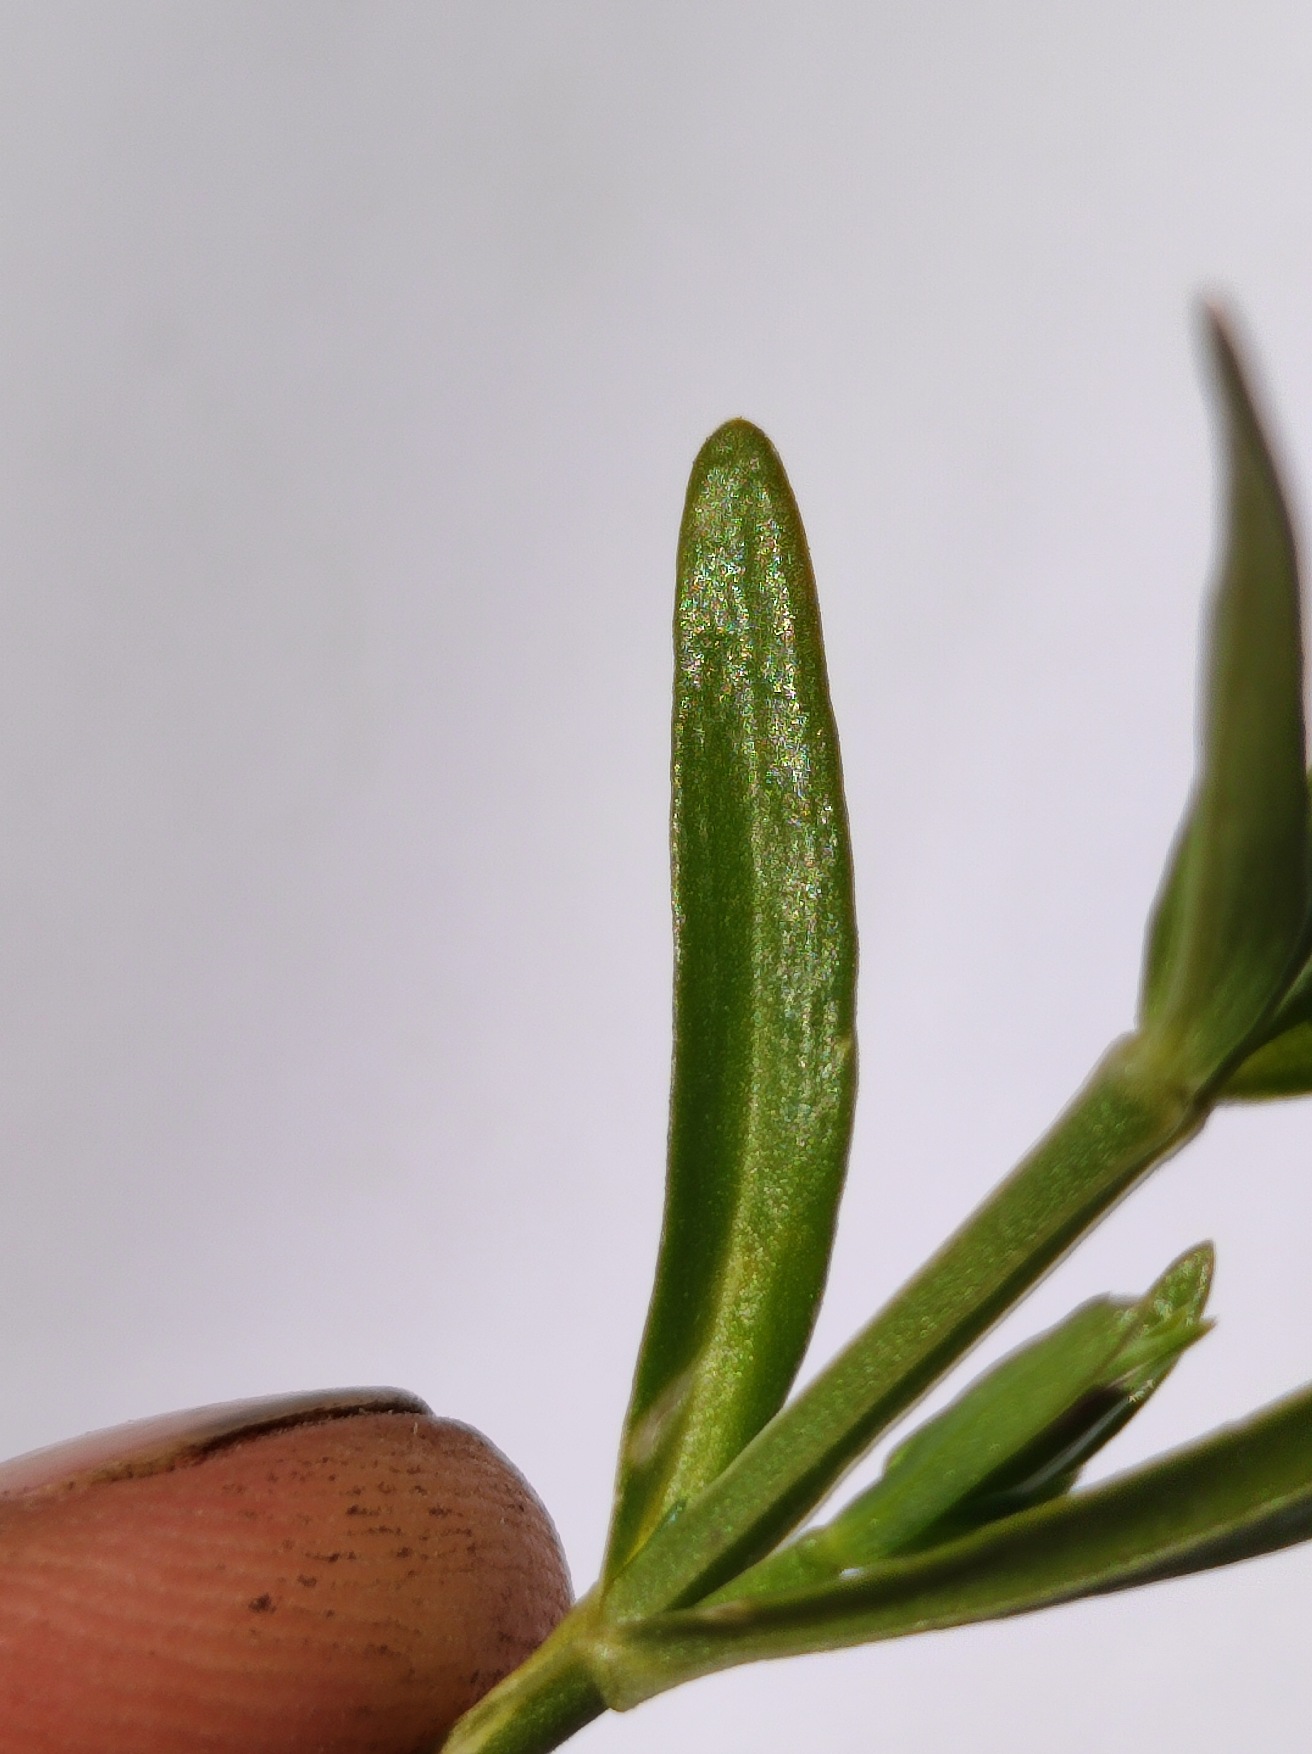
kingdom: Plantae
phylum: Tracheophyta
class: Magnoliopsida
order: Gentianales
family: Gentianaceae
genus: Centaurium
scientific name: Centaurium littorale
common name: Strand-tusindgylden
